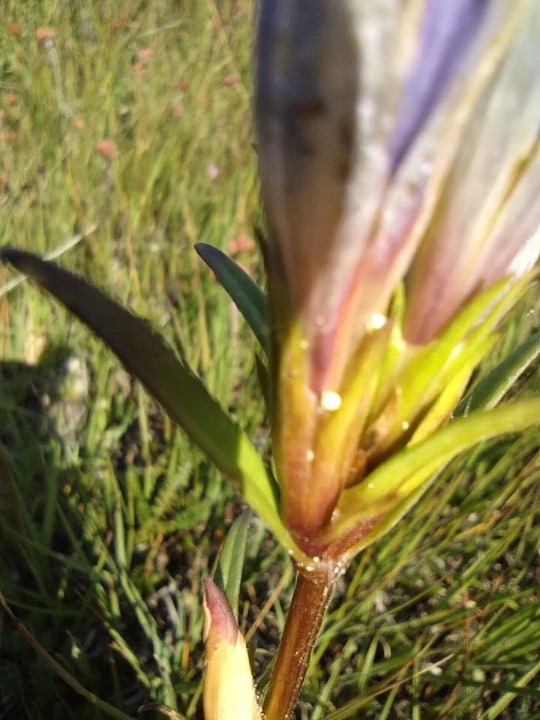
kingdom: Animalia
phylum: Arthropoda
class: Insecta
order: Lepidoptera
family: Lycaenidae
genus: Maculinea
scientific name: Maculinea alcon
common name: Ensianblåfugl
